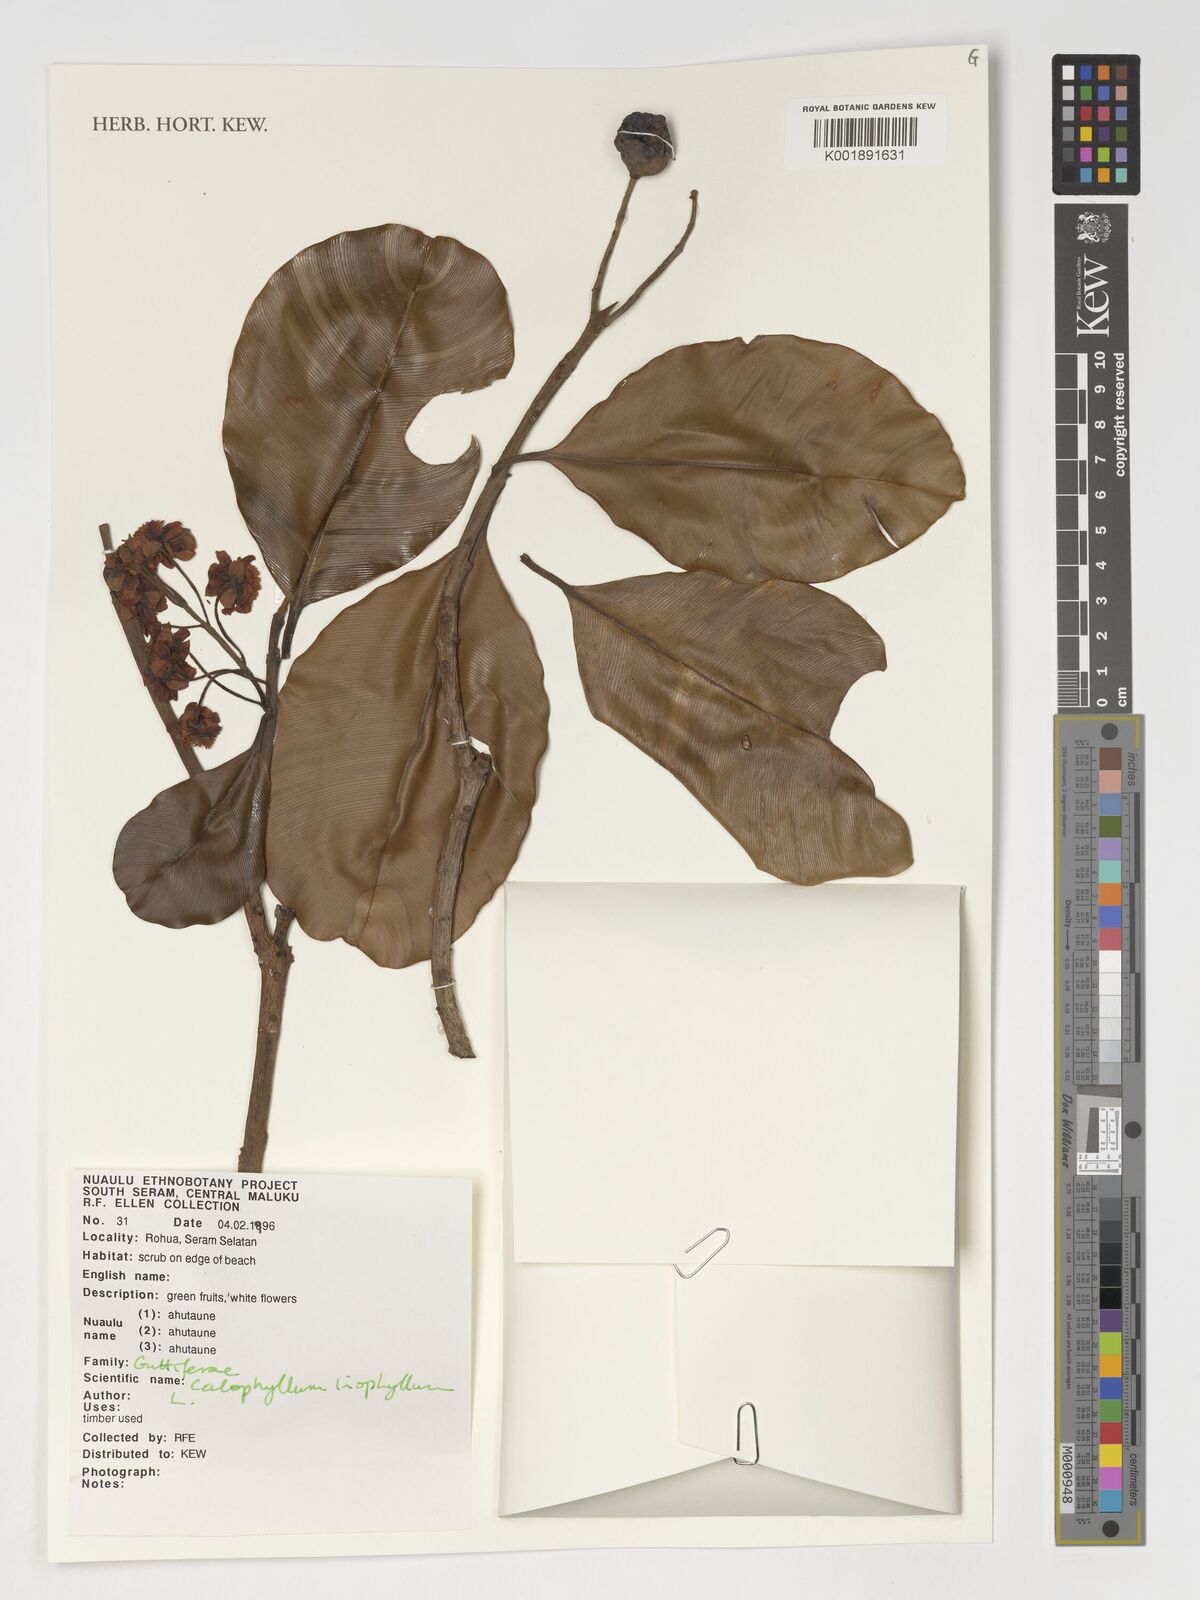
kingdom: Plantae
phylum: Tracheophyta
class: Magnoliopsida
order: Malpighiales
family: Calophyllaceae
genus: Calophyllum
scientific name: Calophyllum inophyllum
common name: Alexandrian laurel
